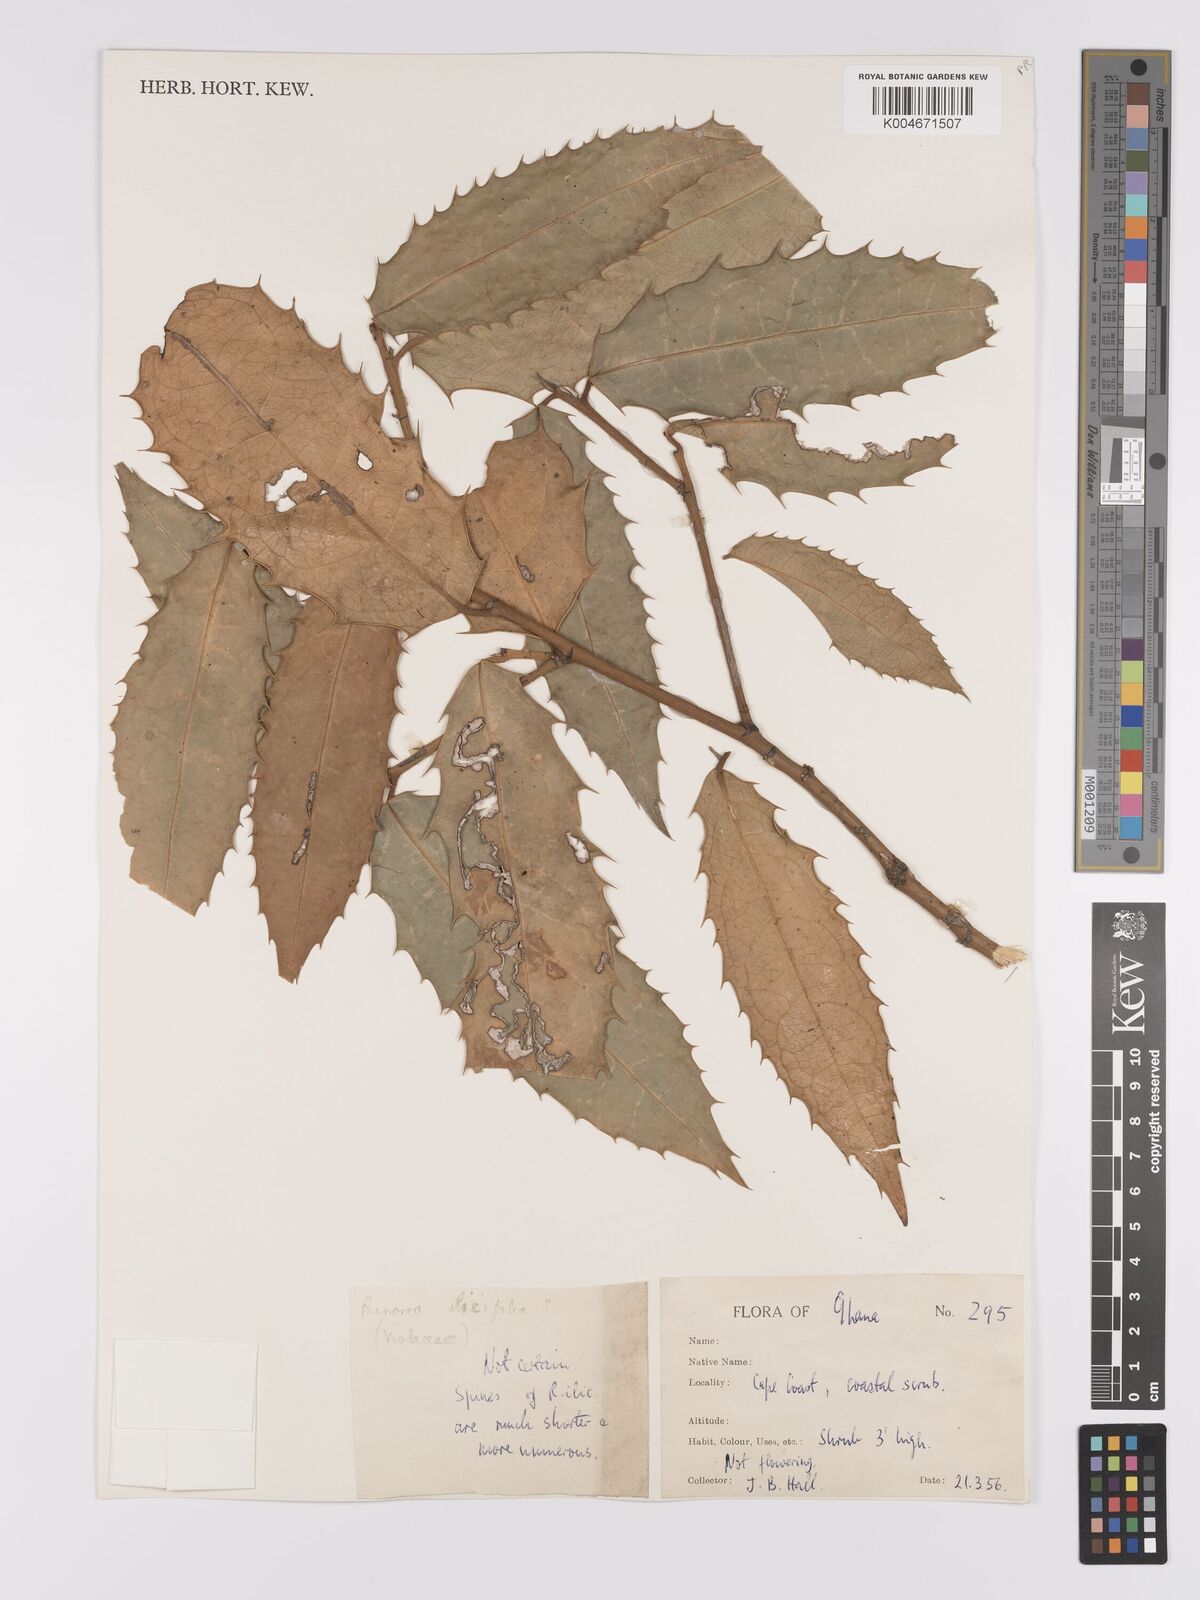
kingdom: Plantae
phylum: Tracheophyta
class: Magnoliopsida
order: Malpighiales
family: Violaceae
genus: Rinorea
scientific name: Rinorea ilicifolia
